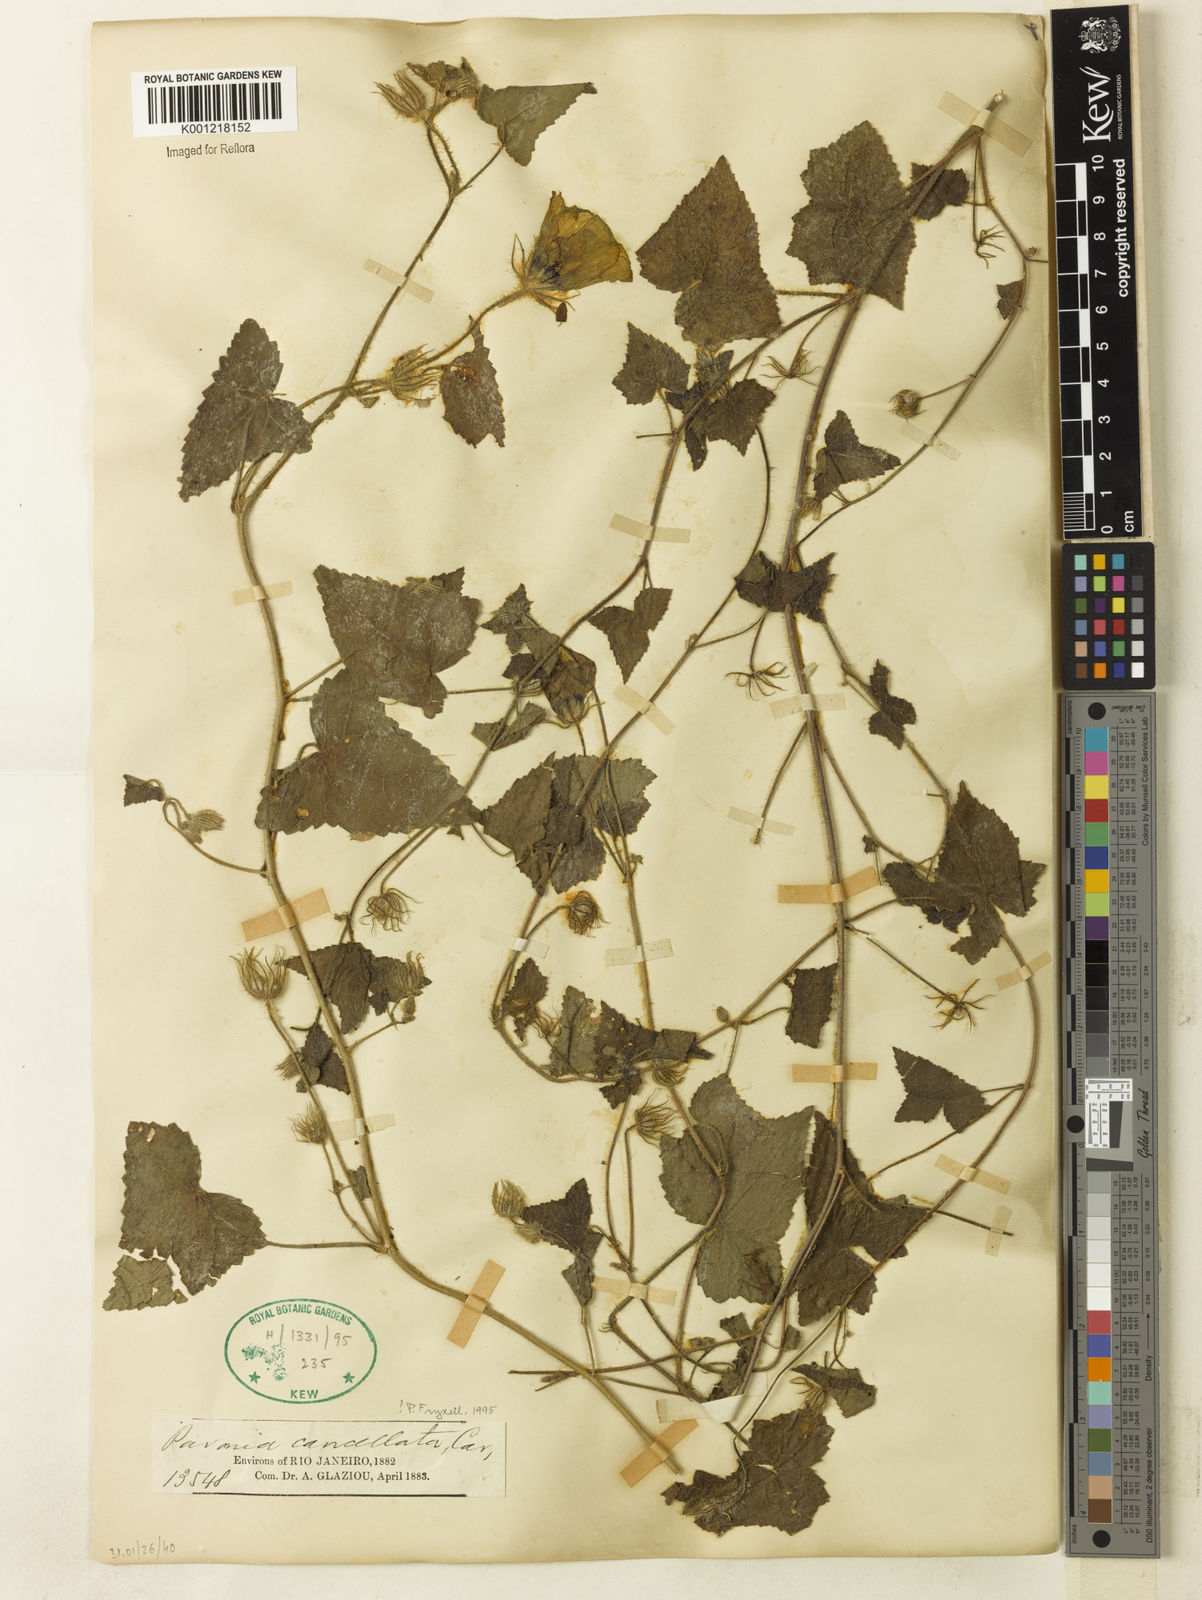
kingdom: Plantae
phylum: Tracheophyta
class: Magnoliopsida
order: Malvales
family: Malvaceae
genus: Pavonia
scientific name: Pavonia cancellata
